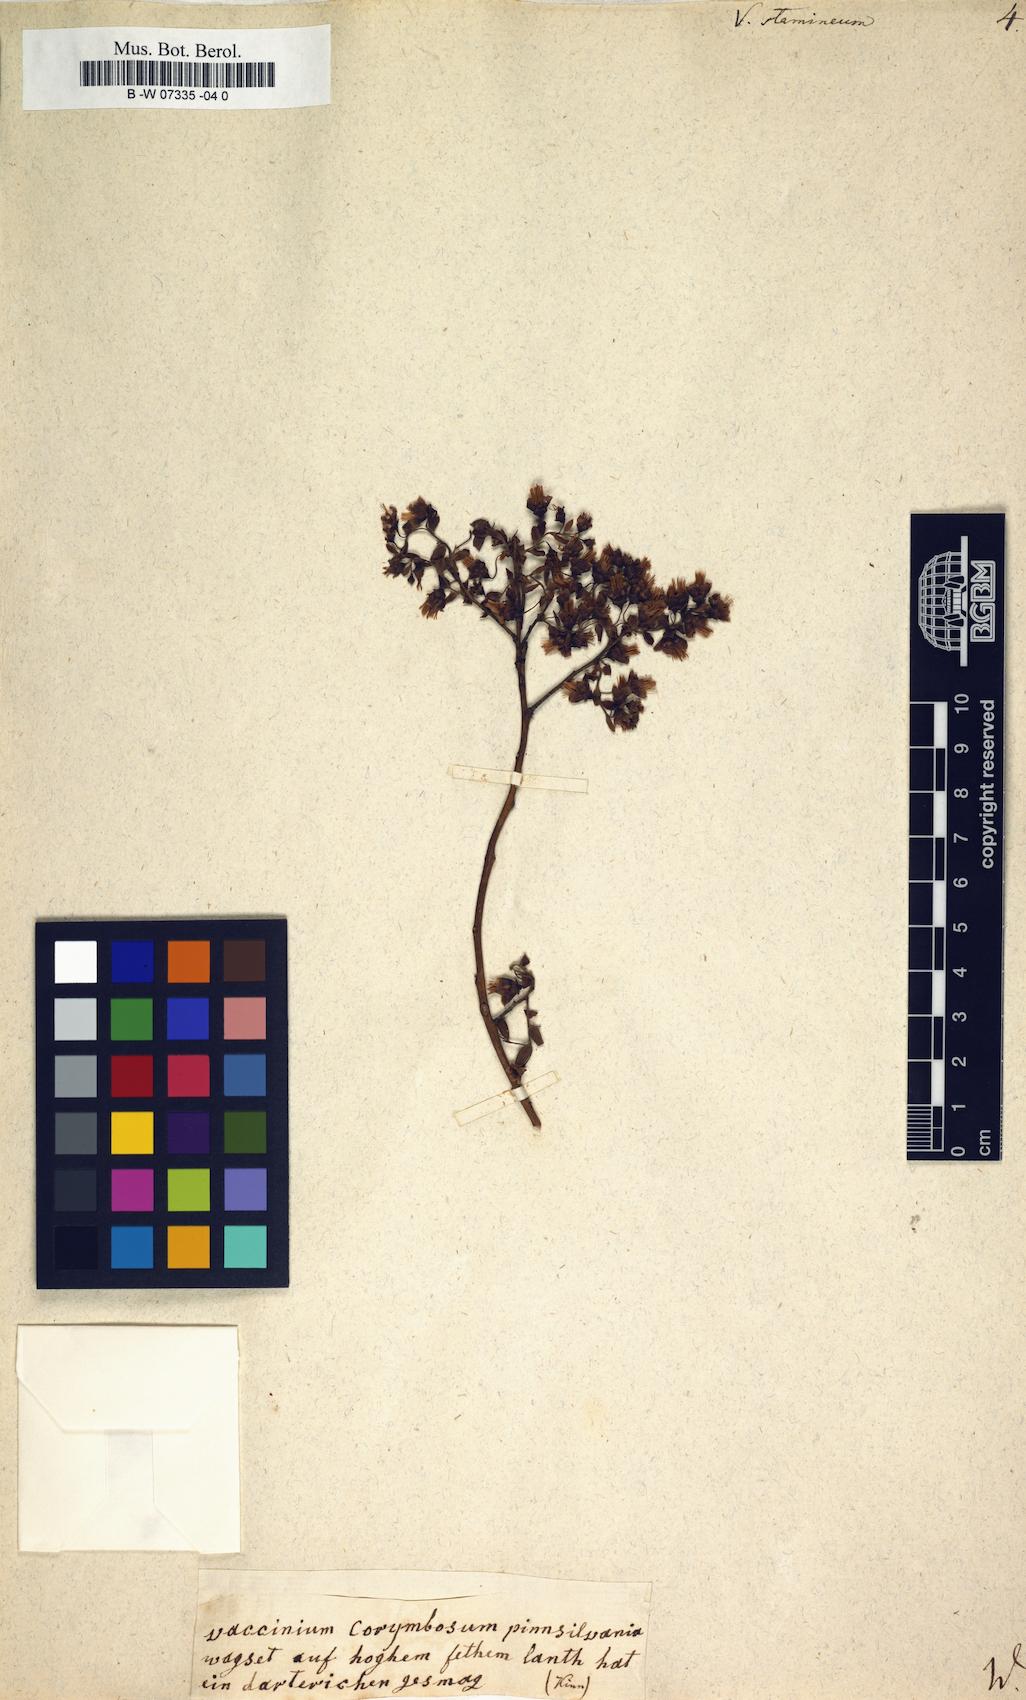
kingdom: Plantae
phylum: Tracheophyta
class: Magnoliopsida
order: Ericales
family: Ericaceae
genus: Vaccinium
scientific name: Vaccinium stamineum
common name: Deerberry
